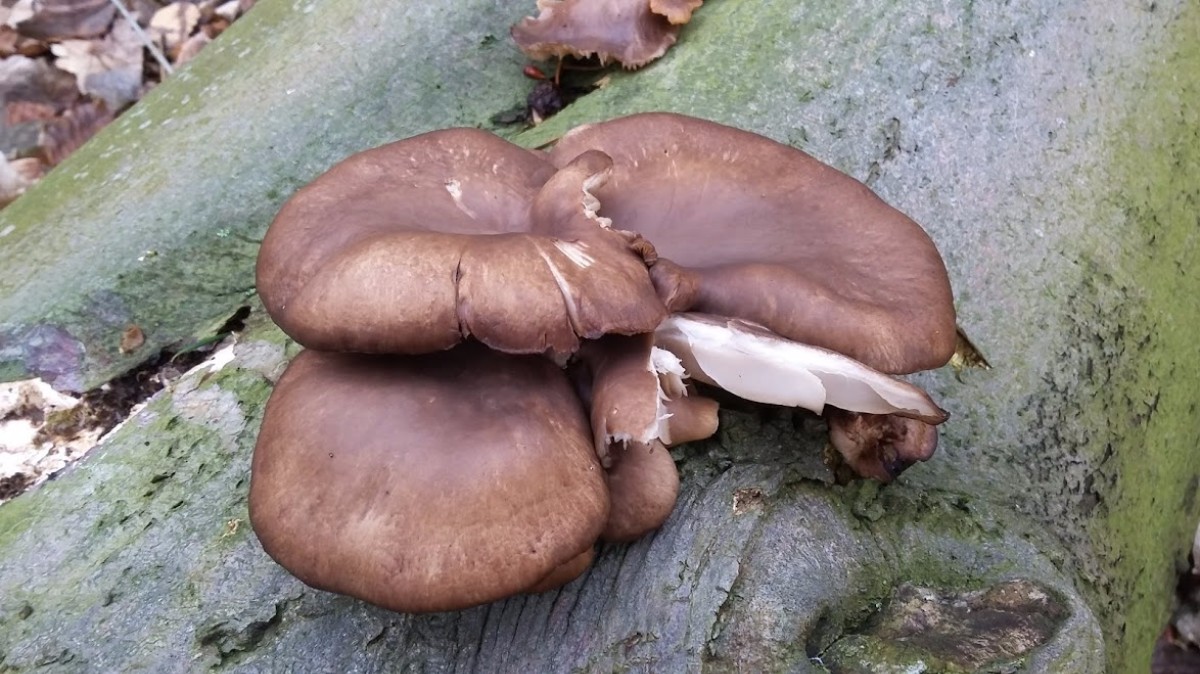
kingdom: Fungi
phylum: Basidiomycota
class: Agaricomycetes
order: Agaricales
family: Pleurotaceae
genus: Pleurotus
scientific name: Pleurotus ostreatus
